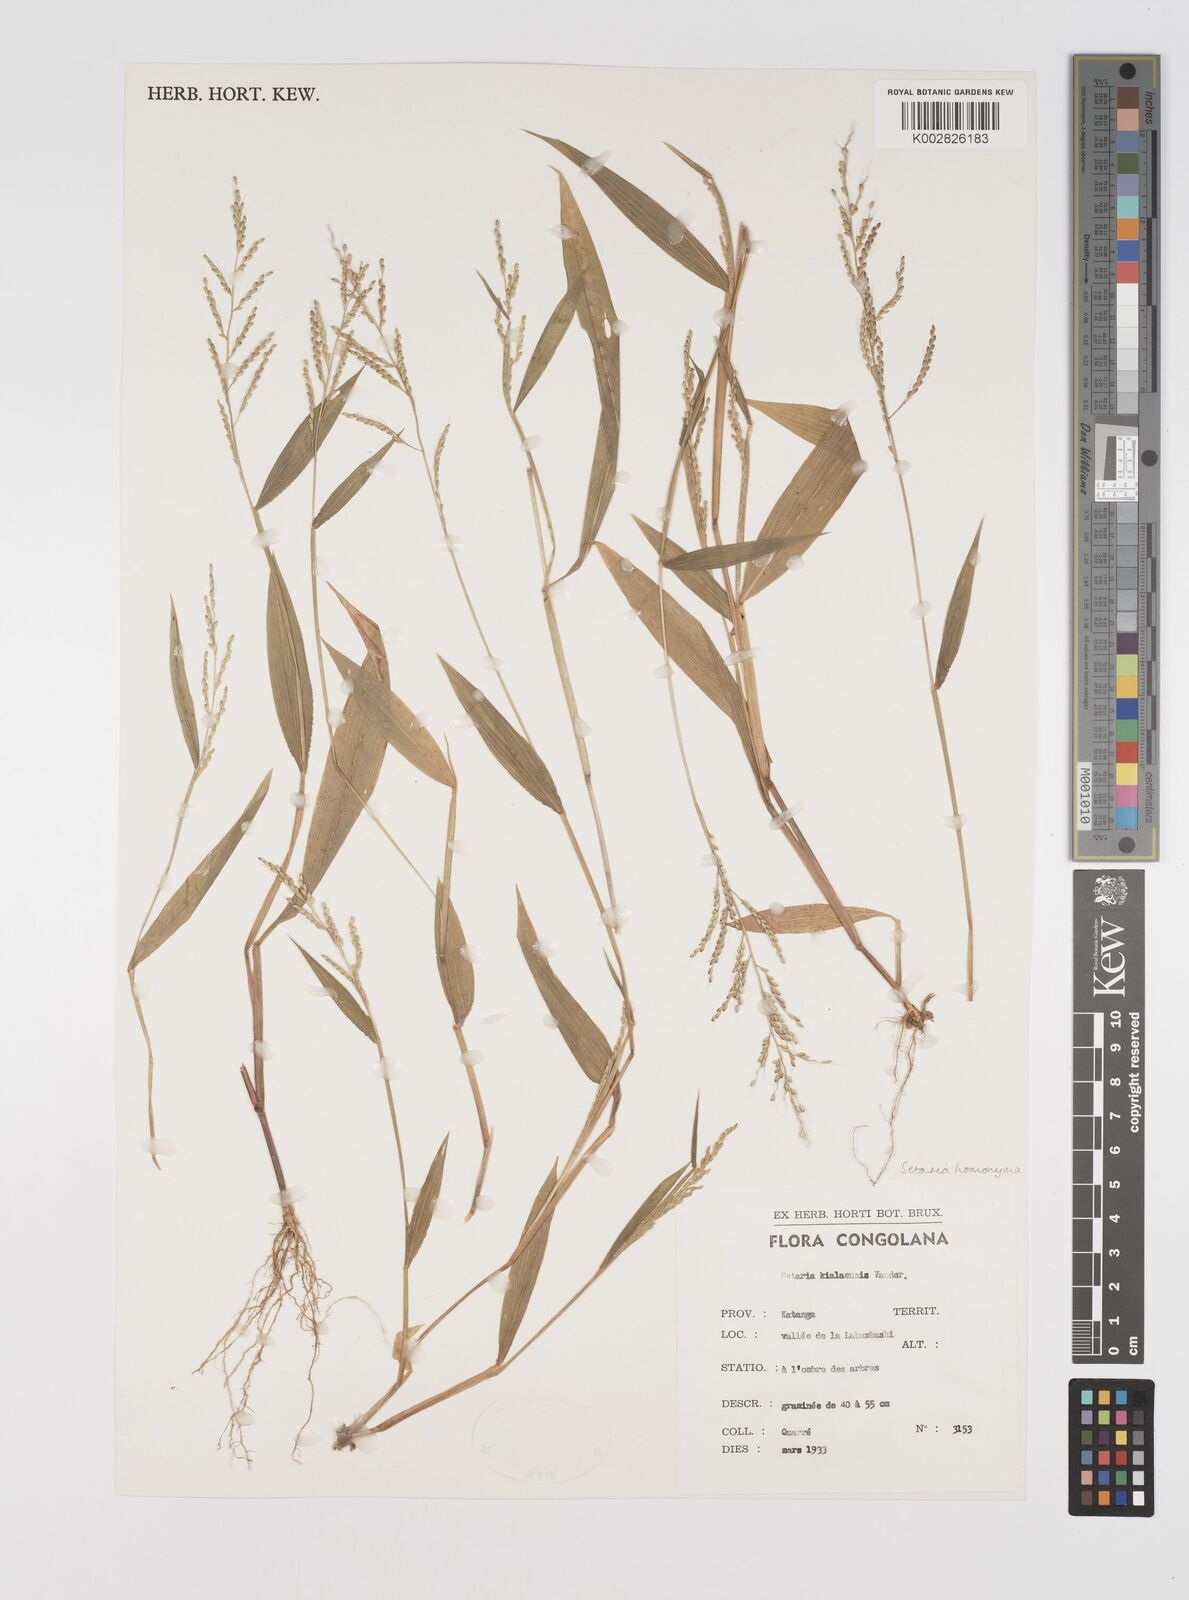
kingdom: Plantae
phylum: Tracheophyta
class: Liliopsida
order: Poales
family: Poaceae
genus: Setaria
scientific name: Setaria homonyma
